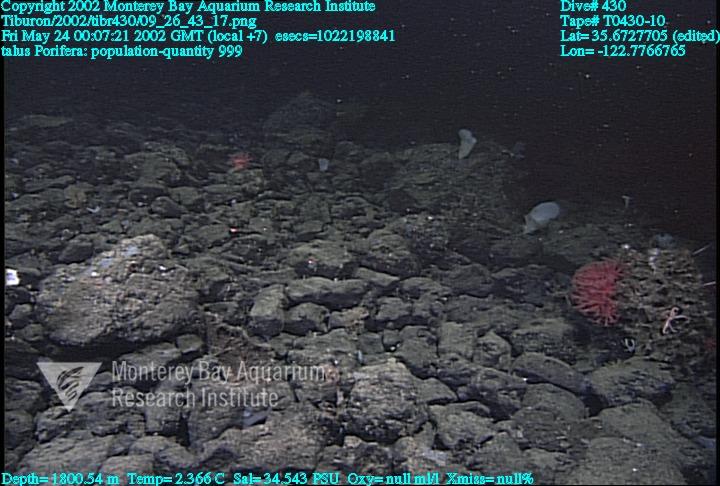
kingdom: Animalia
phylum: Porifera
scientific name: Porifera
